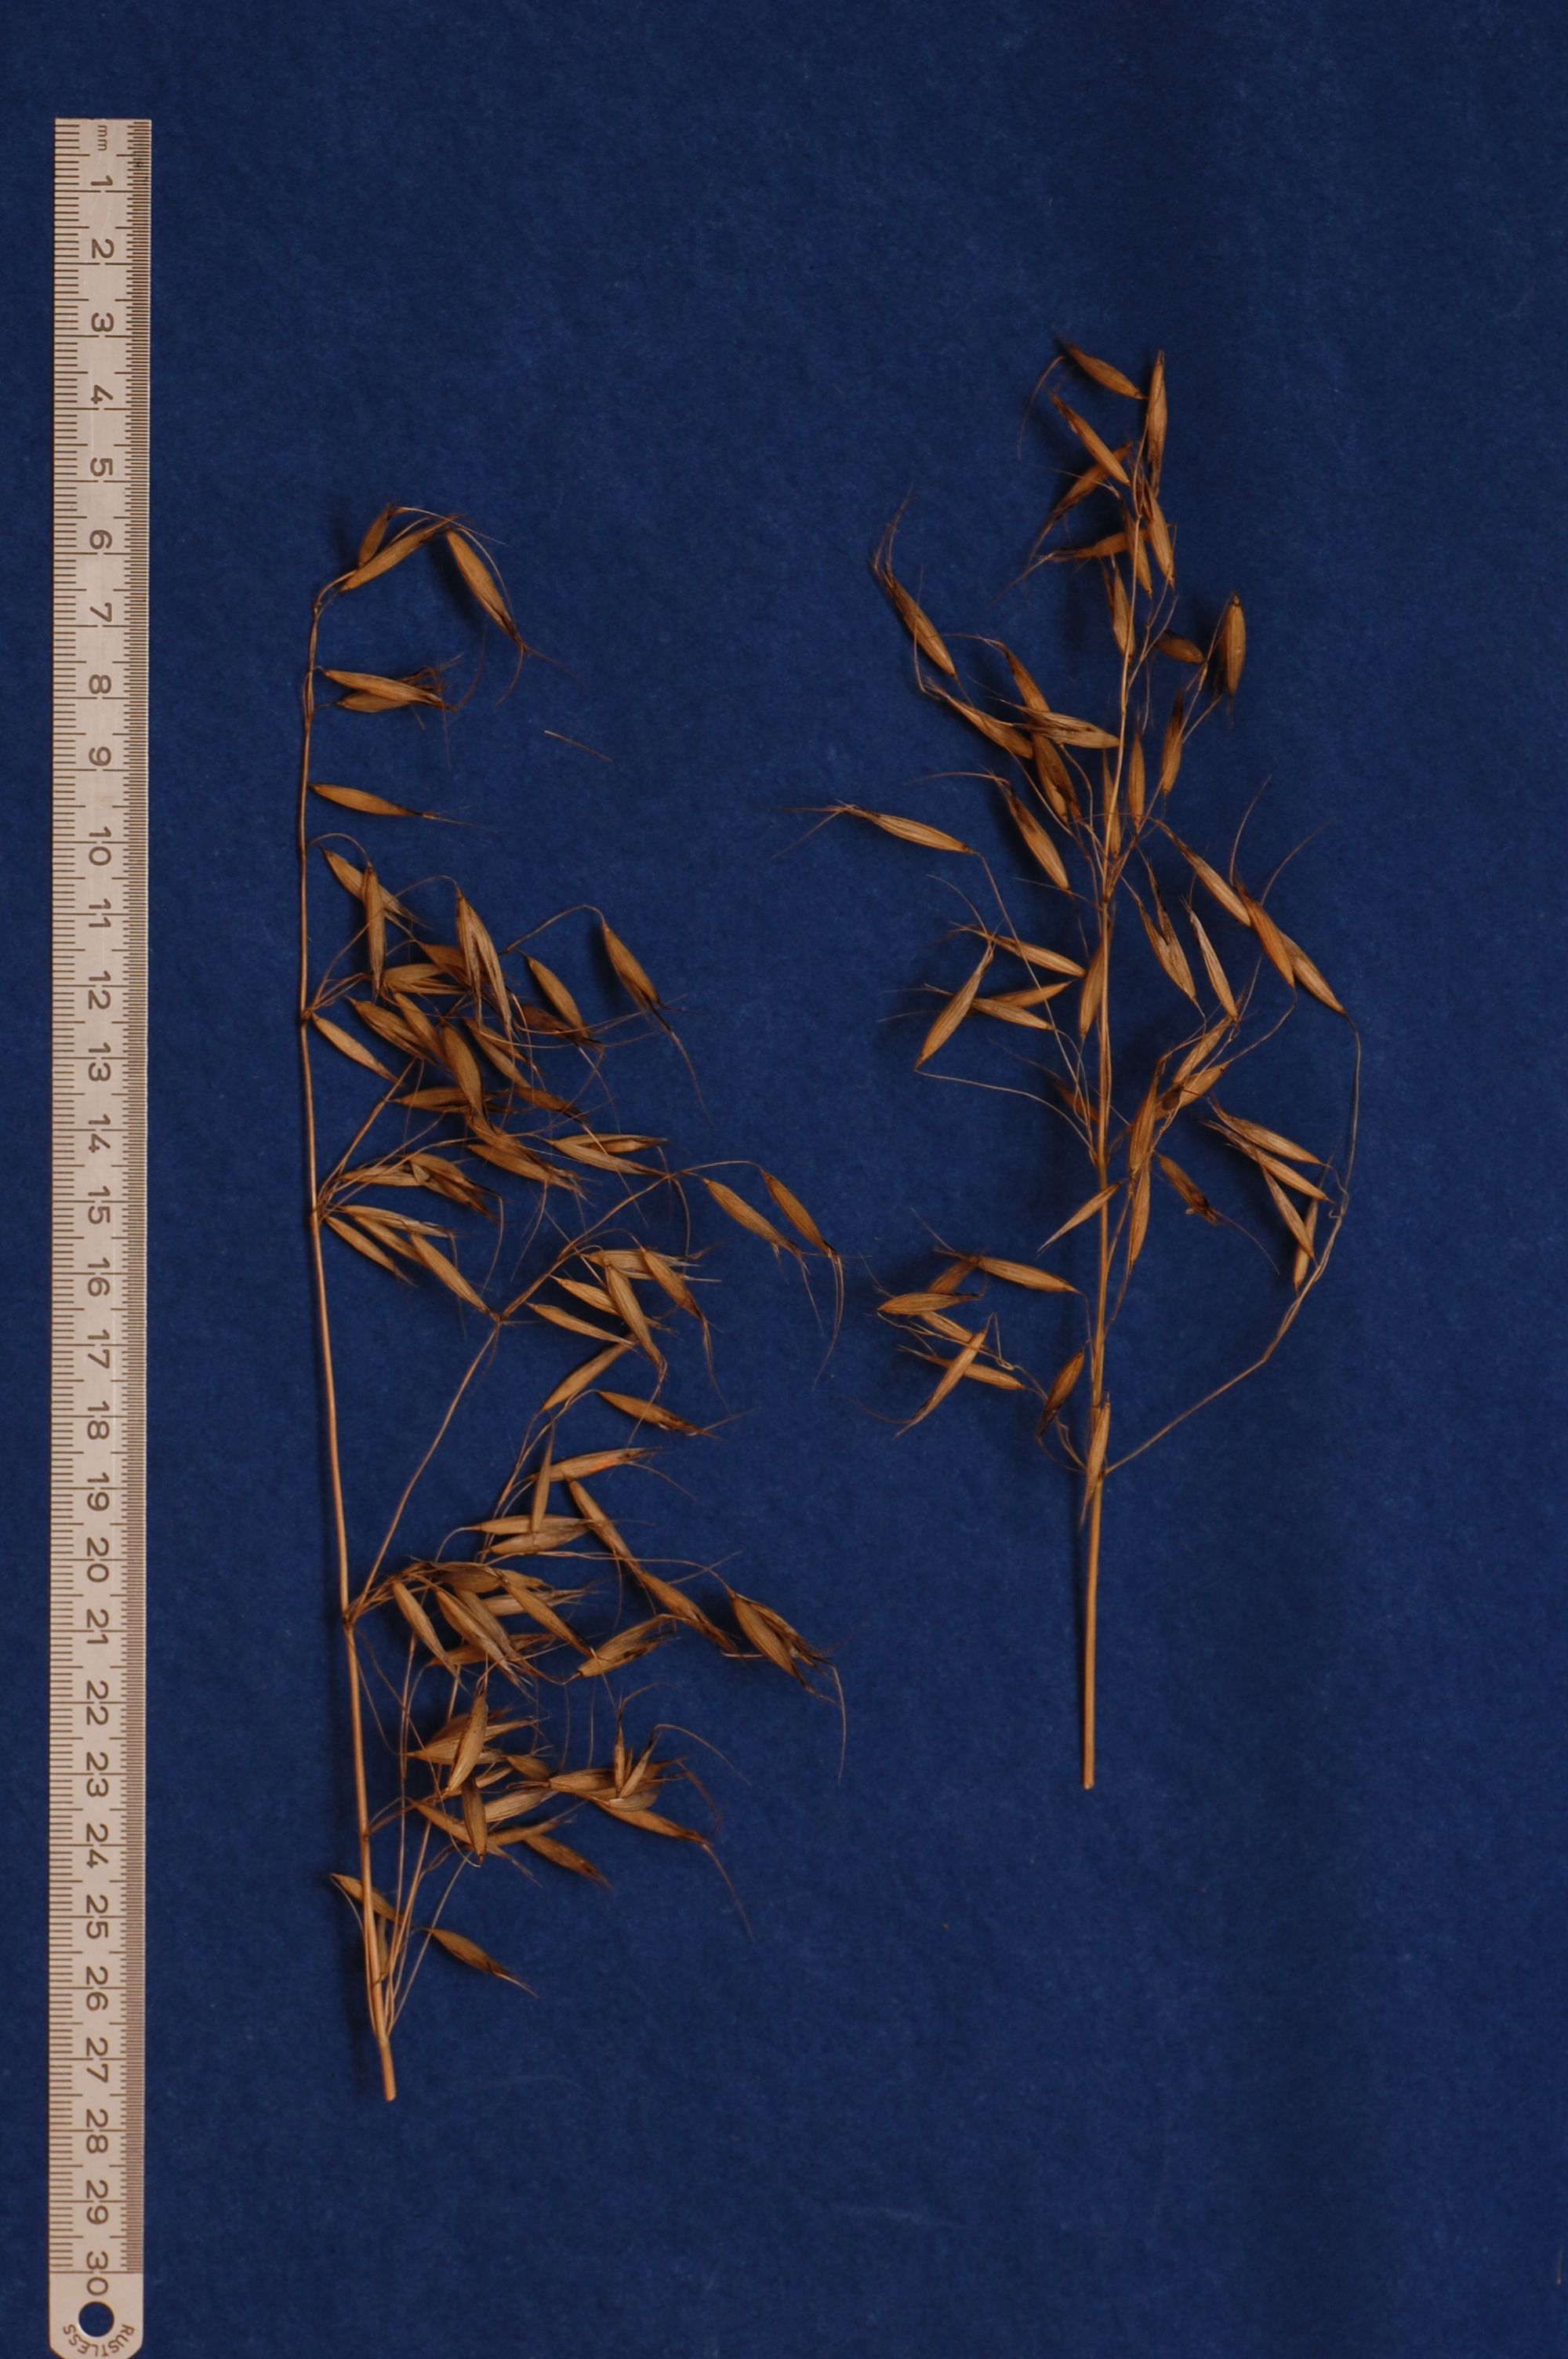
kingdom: Plantae
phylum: Tracheophyta
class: Liliopsida
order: Poales
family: Poaceae
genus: Avena
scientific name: Avena strigosa
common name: Bristle oat
